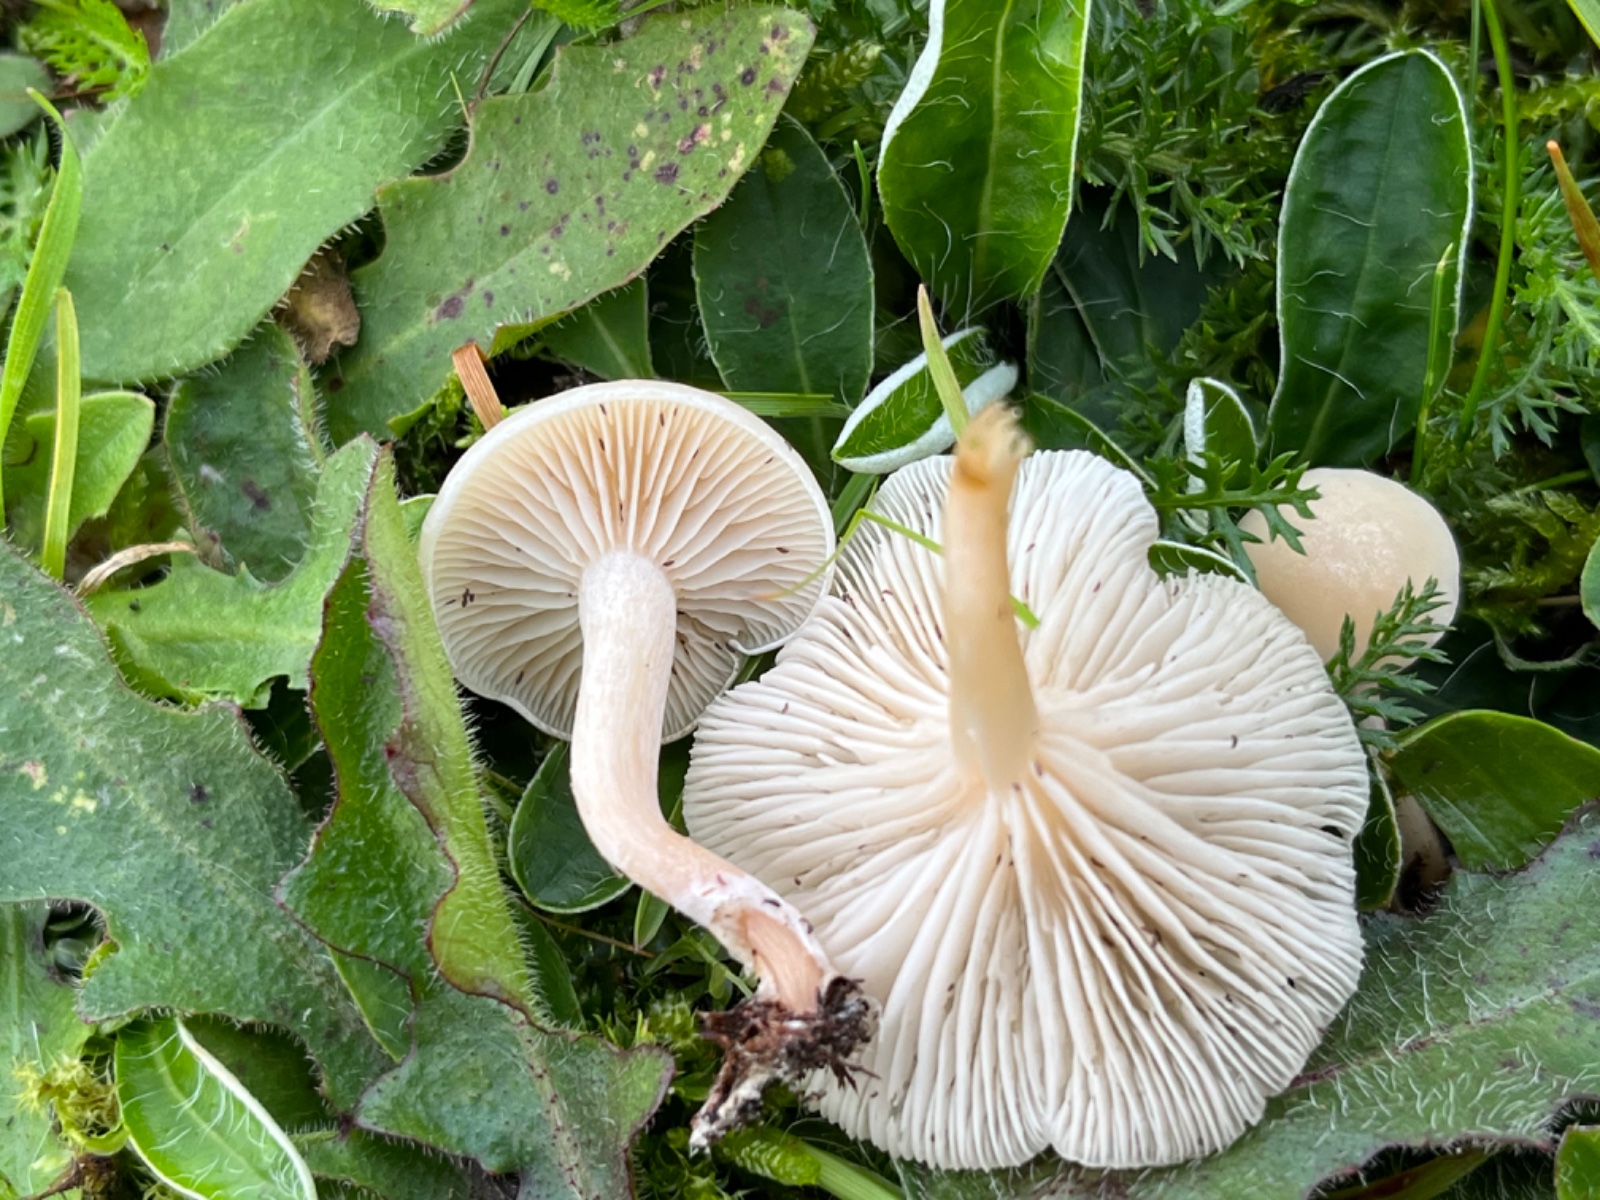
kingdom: Fungi
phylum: Basidiomycota
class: Agaricomycetes
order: Agaricales
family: Tricholomataceae
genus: Clitocybe
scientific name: Clitocybe rivulosa
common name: eng-tragthat
